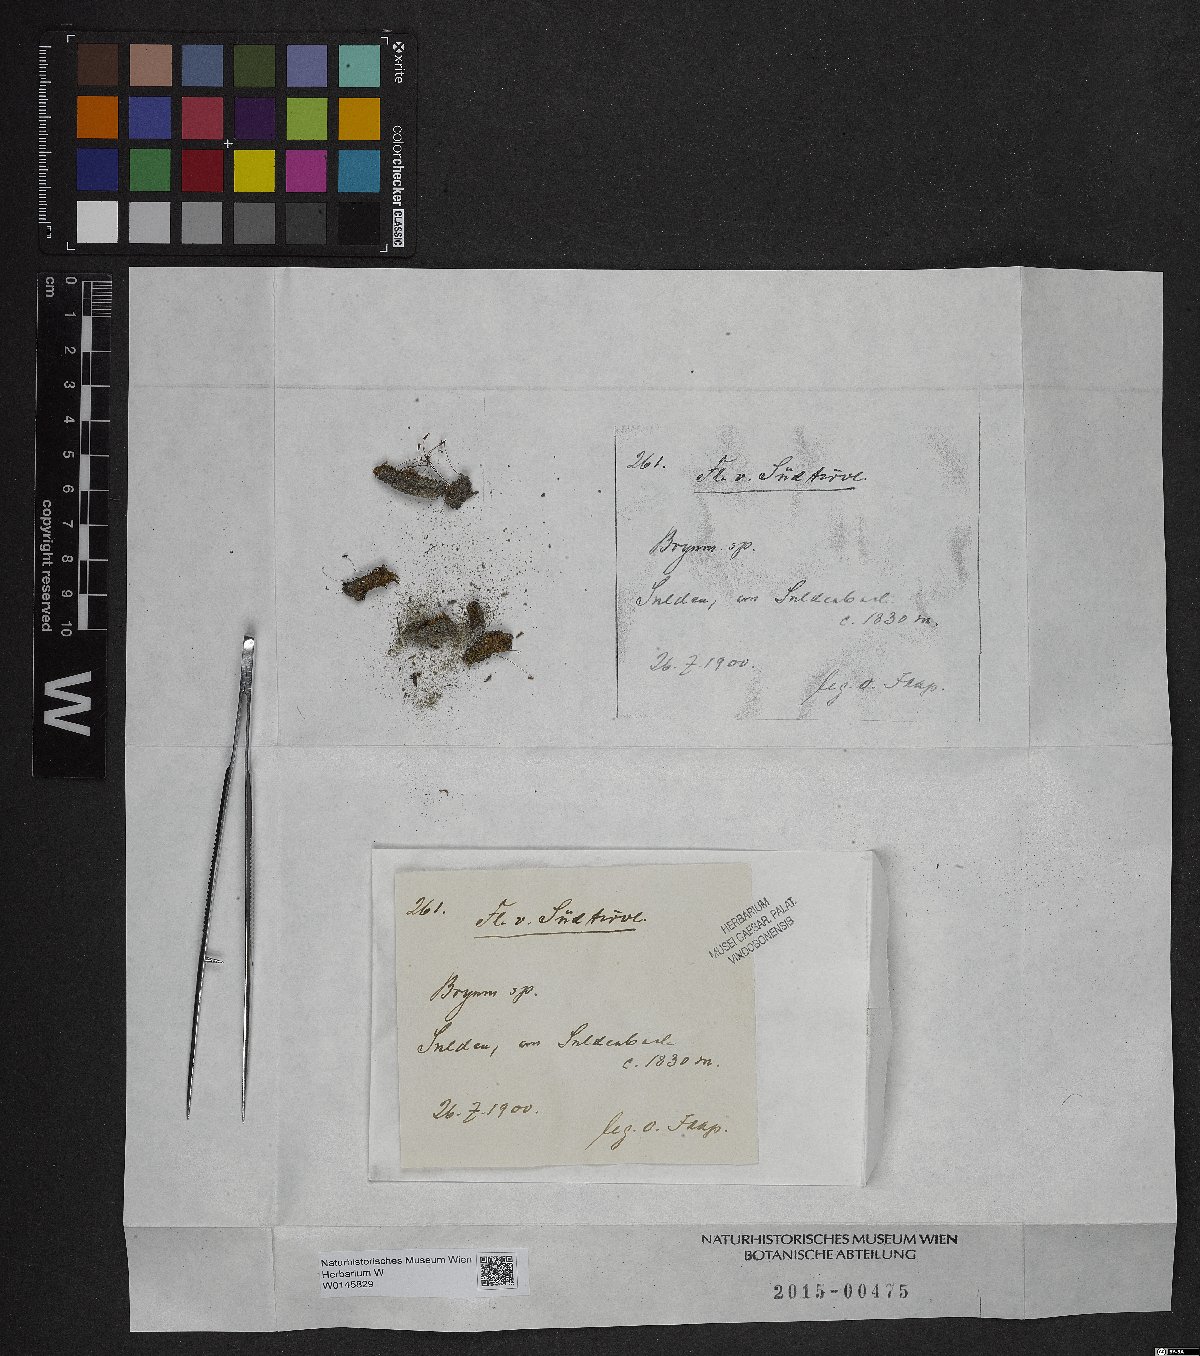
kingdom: Plantae
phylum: Bryophyta
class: Bryopsida
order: Bryales
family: Bryaceae
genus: Bryum
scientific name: Bryum
